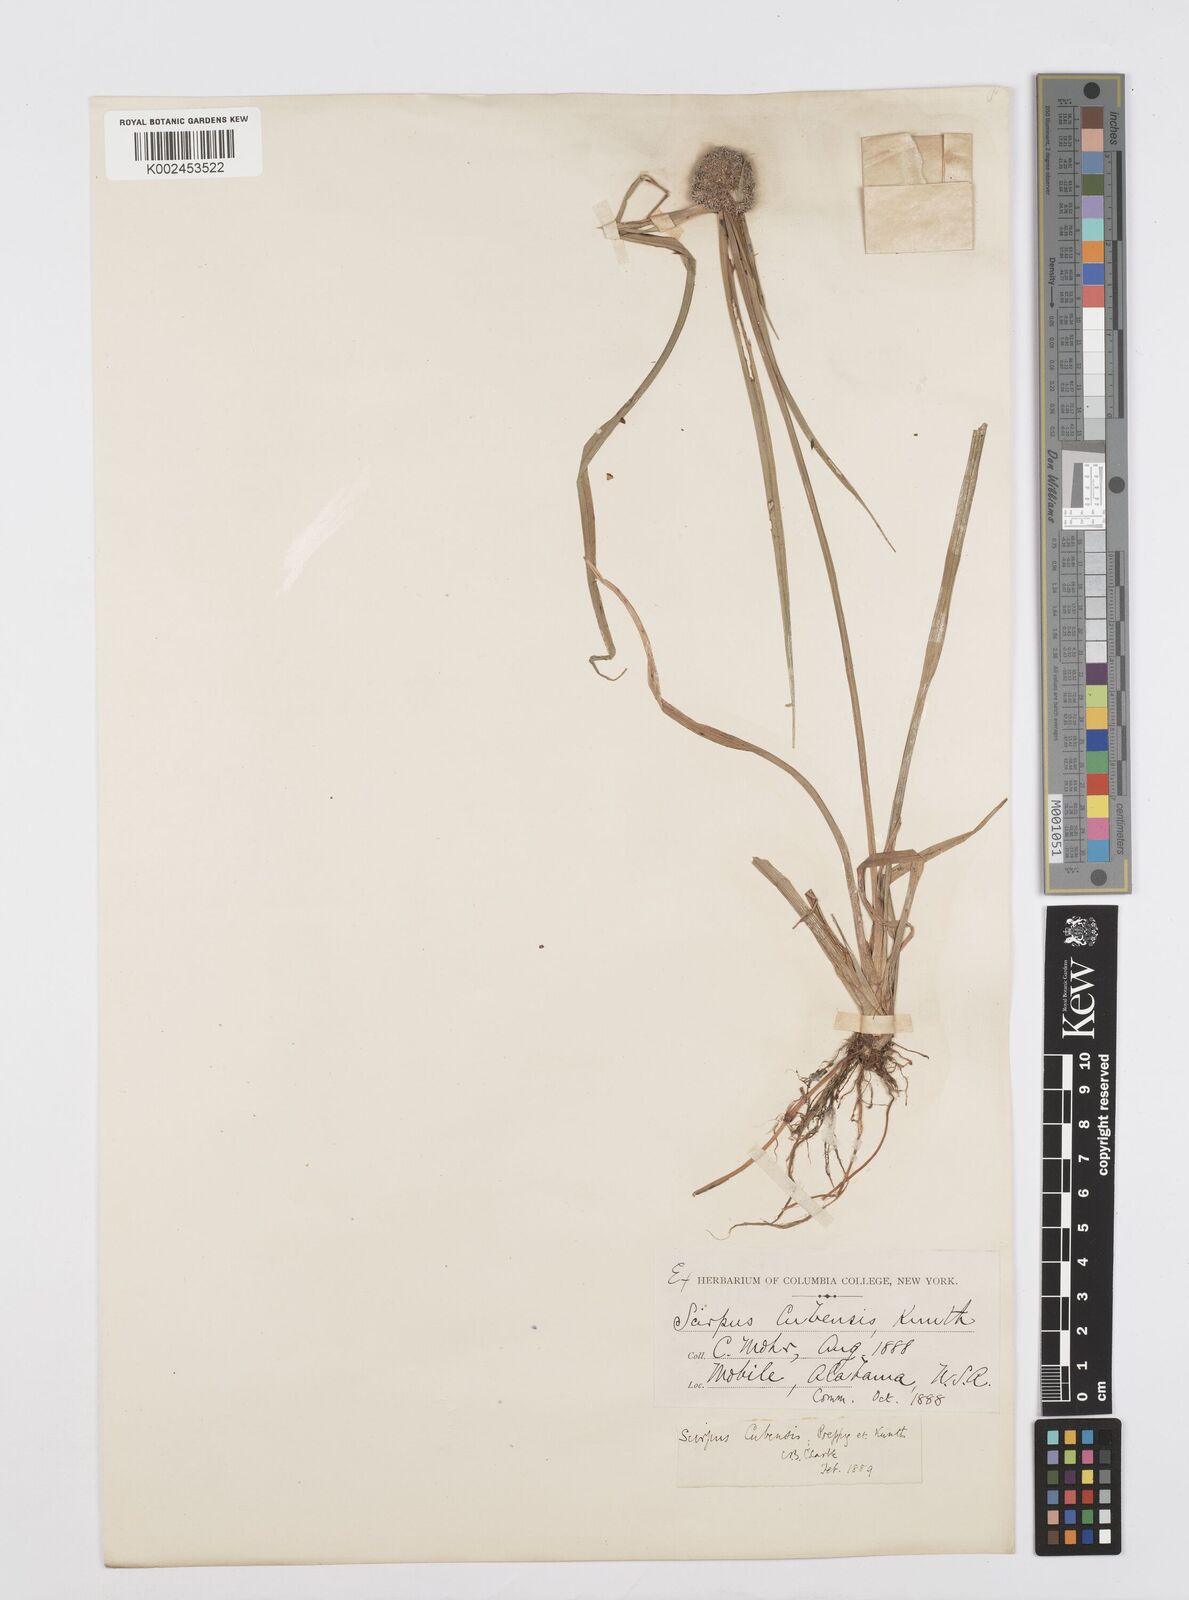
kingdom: Plantae
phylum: Tracheophyta
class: Liliopsida
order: Poales
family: Cyperaceae
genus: Cyperus
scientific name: Cyperus elegans
